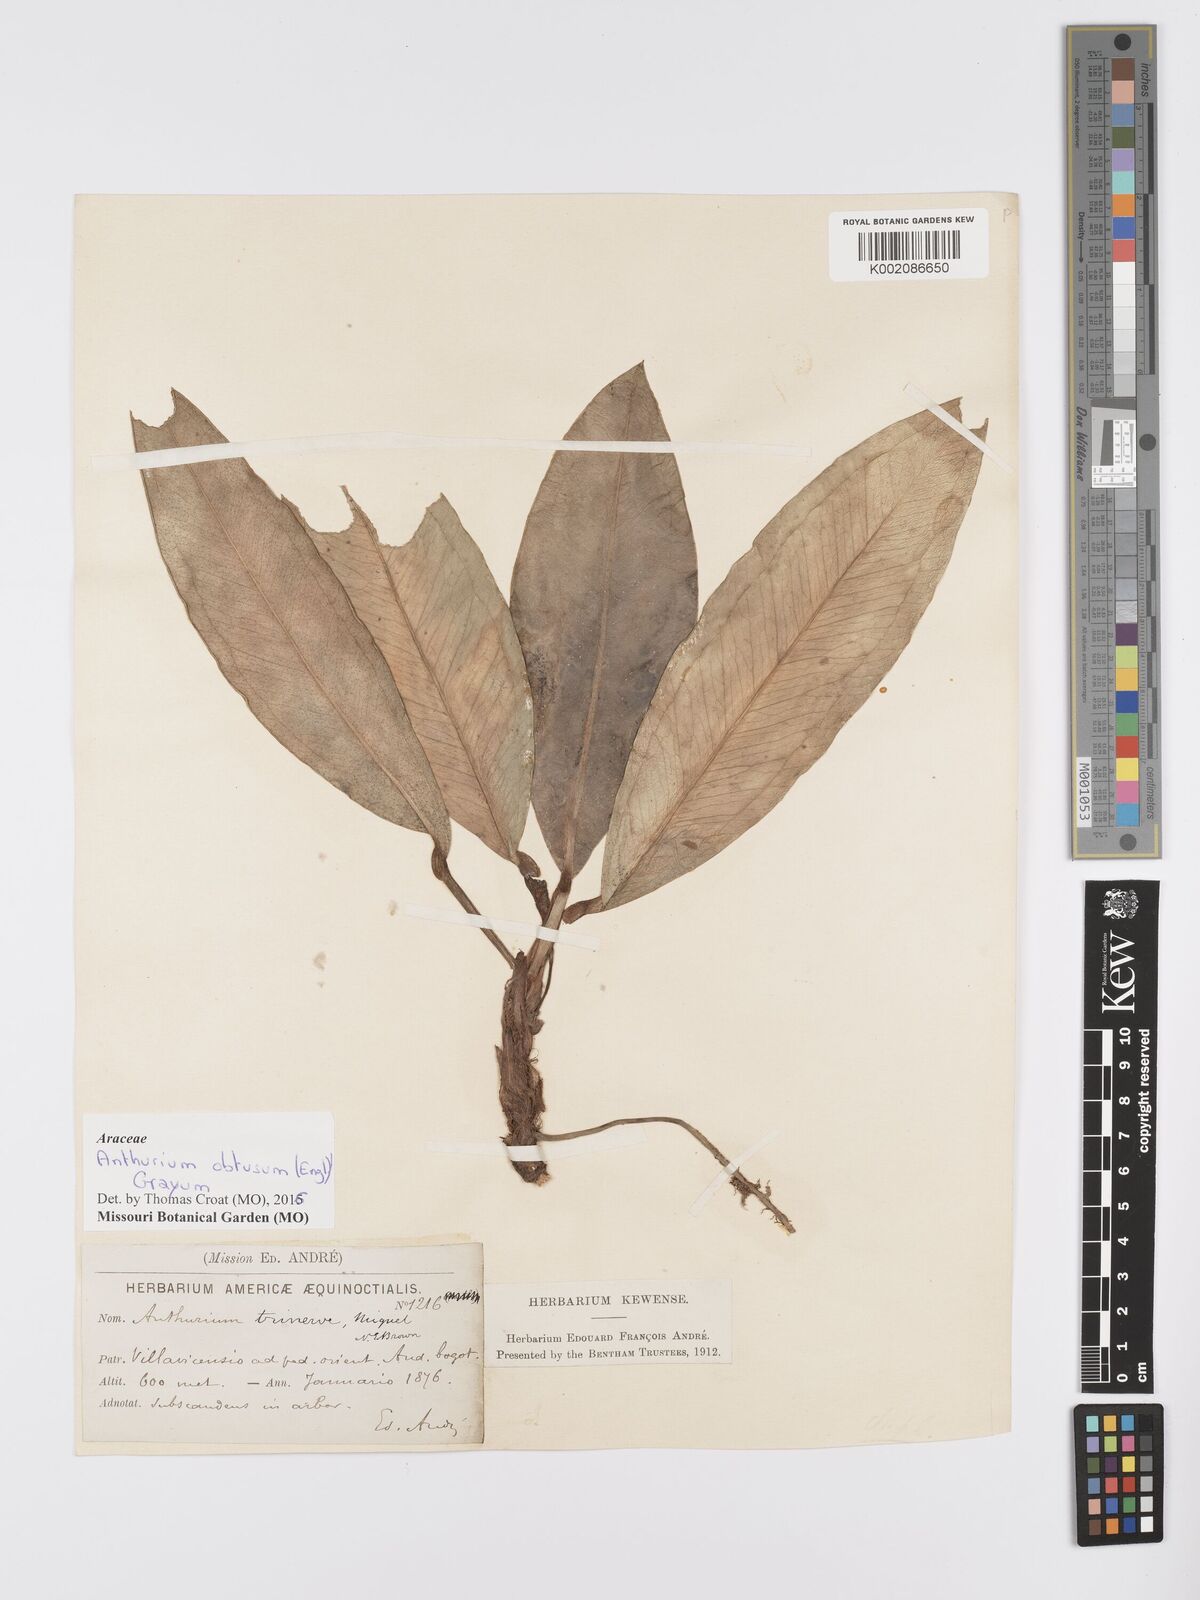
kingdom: Plantae
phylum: Tracheophyta
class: Liliopsida
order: Alismatales
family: Araceae
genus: Anthurium
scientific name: Anthurium obtusum
